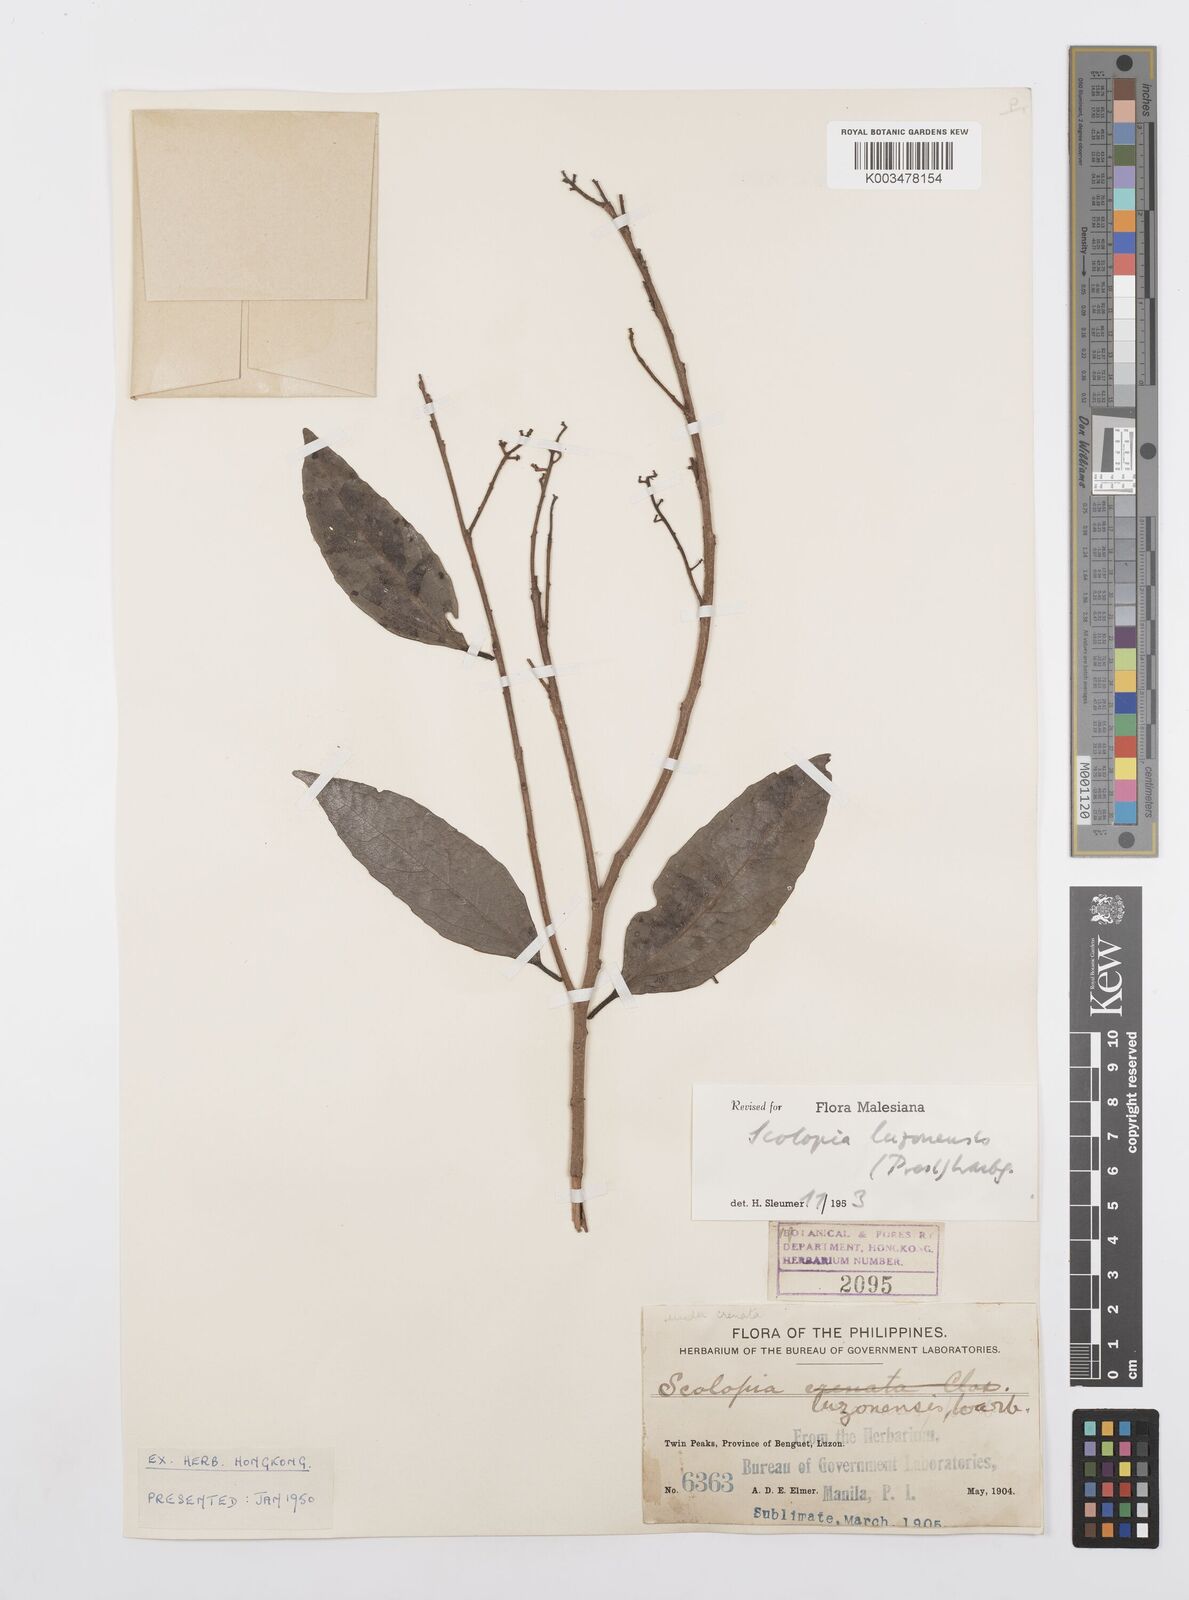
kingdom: Plantae
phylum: Tracheophyta
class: Magnoliopsida
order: Malpighiales
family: Salicaceae
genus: Scolopia
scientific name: Scolopia luzonensis
